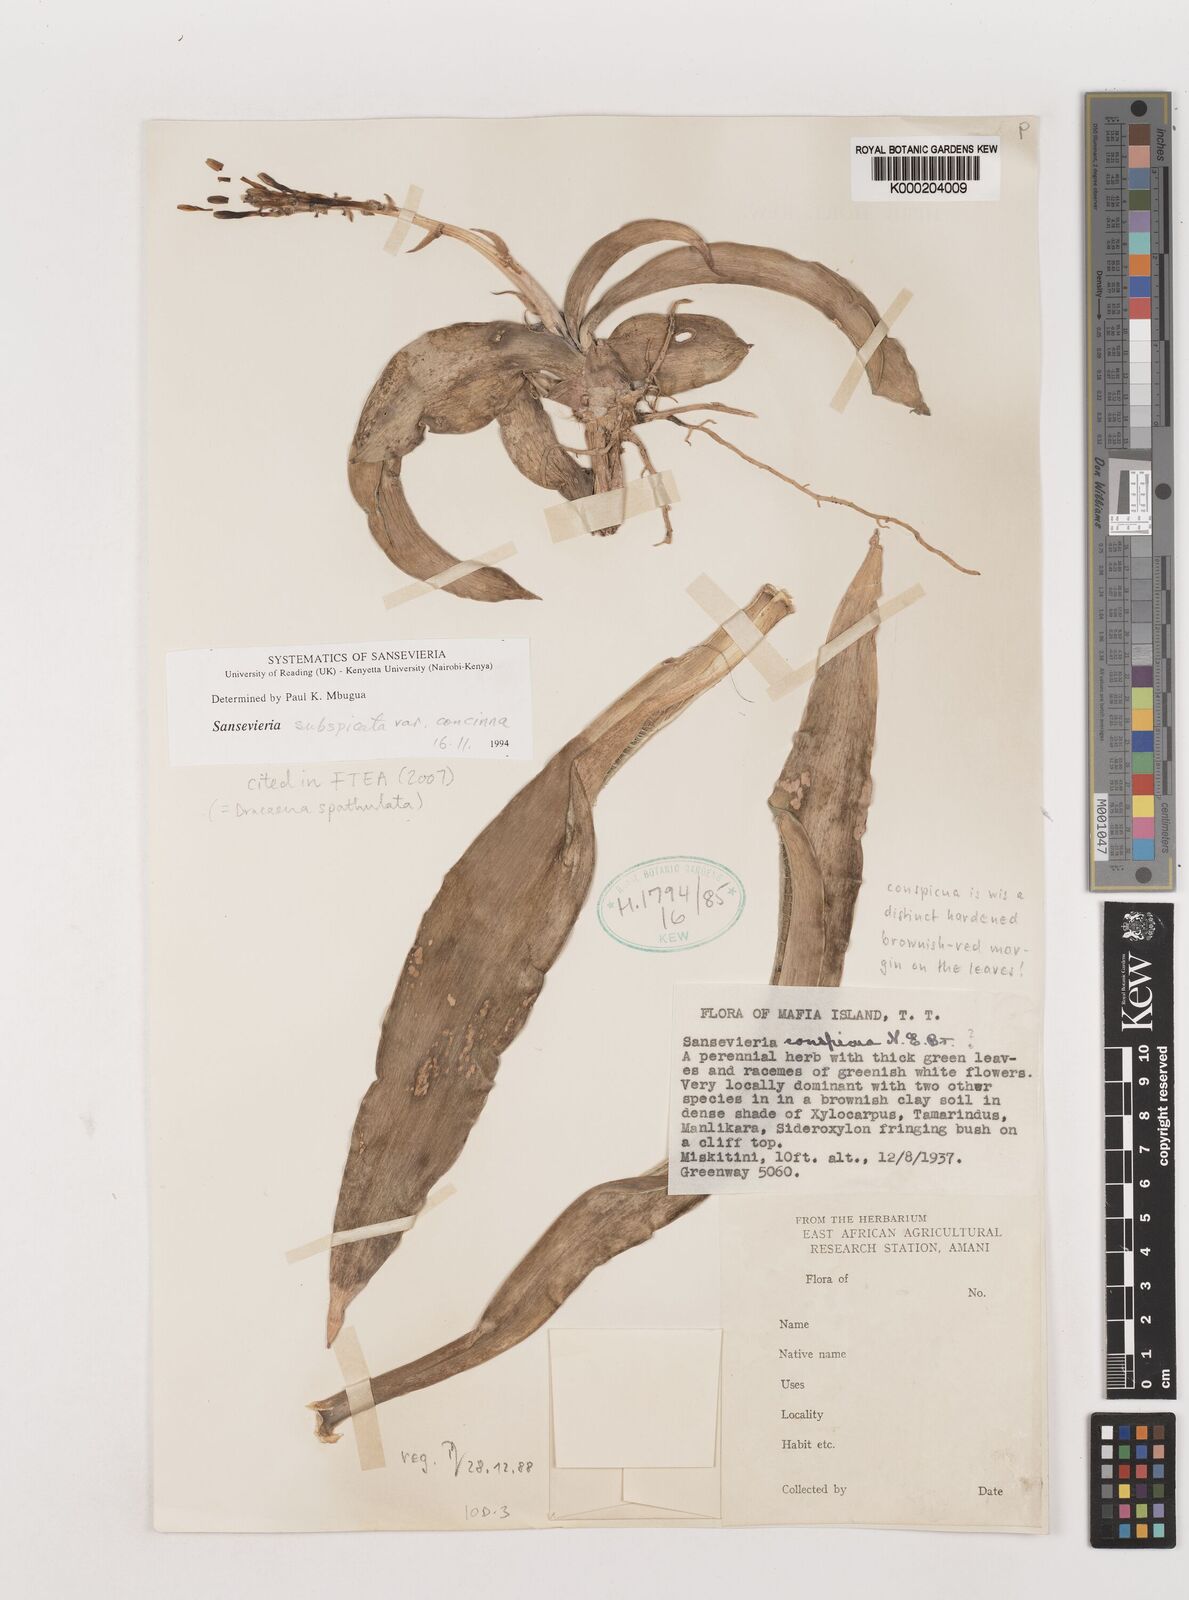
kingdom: Plantae
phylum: Tracheophyta
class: Liliopsida
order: Asparagales
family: Asparagaceae
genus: Dracaena
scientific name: Dracaena spathulata
